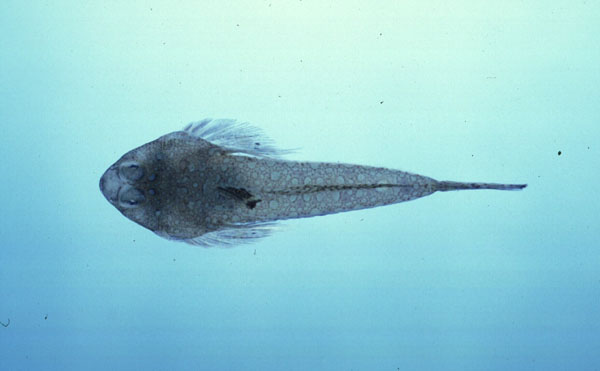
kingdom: Animalia
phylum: Chordata
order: Perciformes
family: Callionymidae
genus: Callionymus
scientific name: Callionymus filamentosus
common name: Blotchfin dragonet
